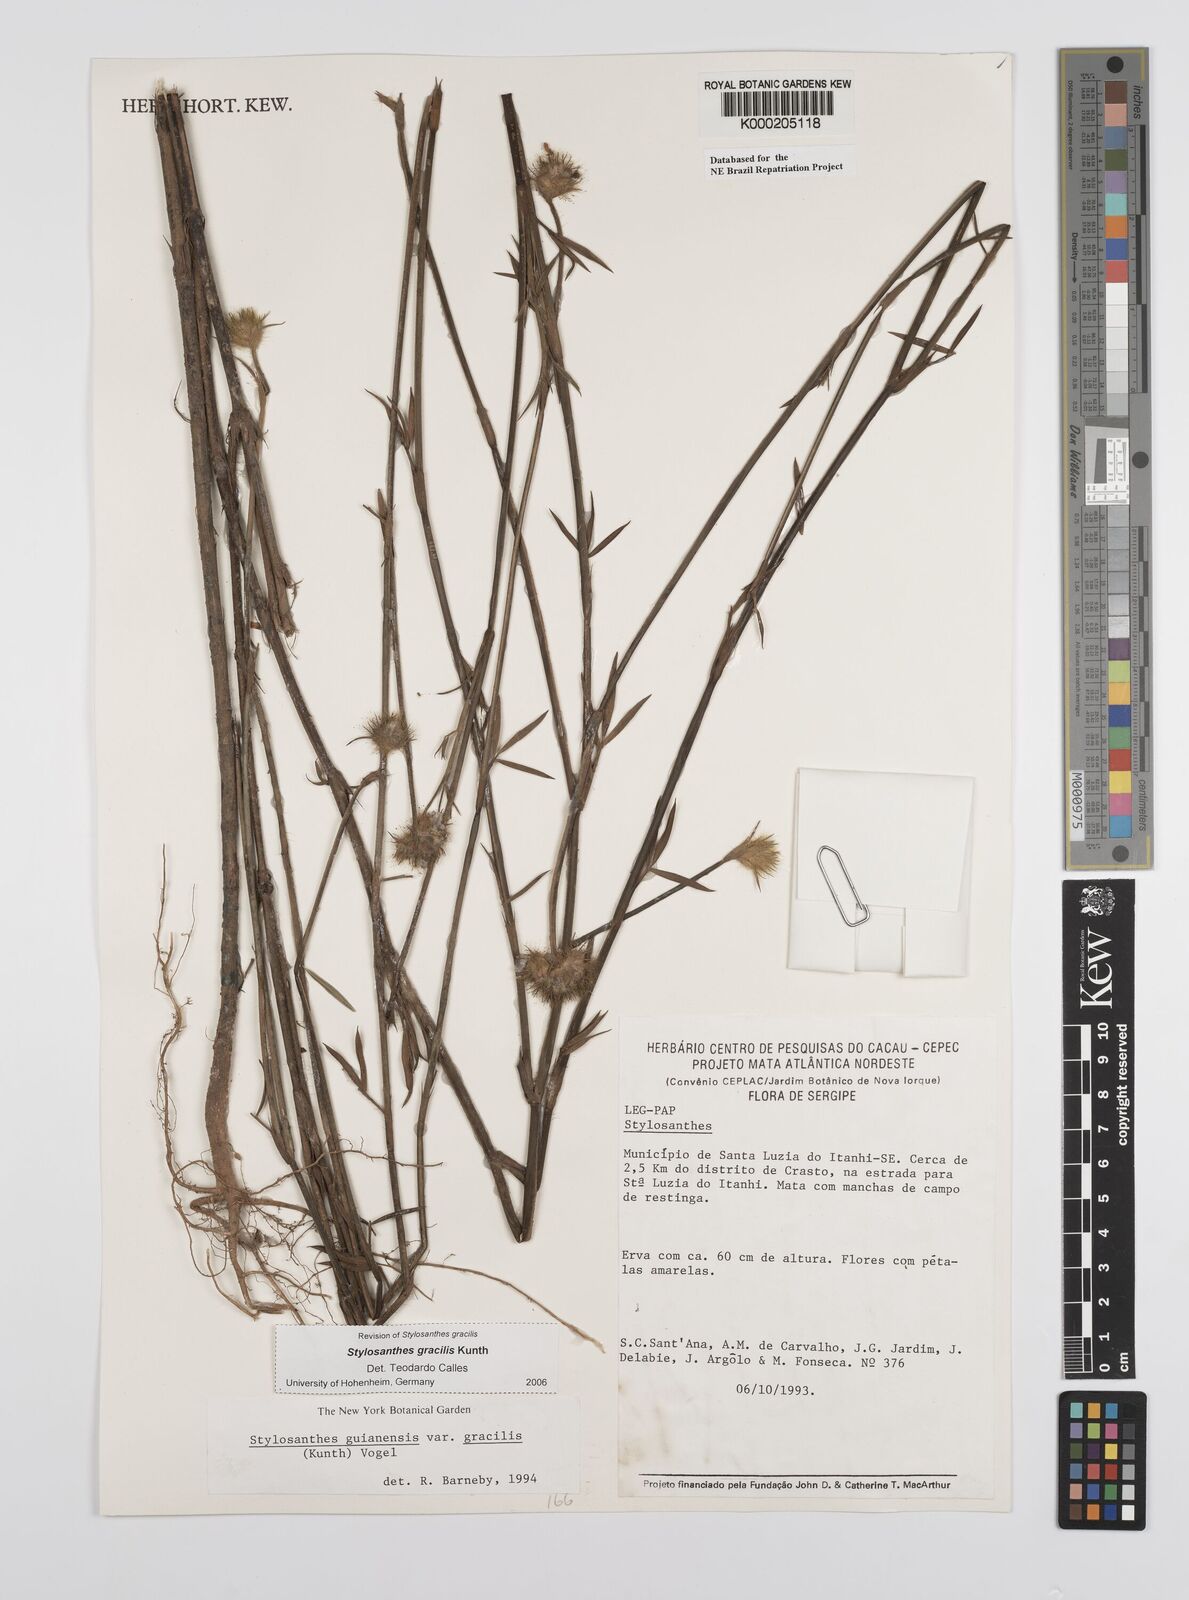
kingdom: Plantae
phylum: Tracheophyta
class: Magnoliopsida
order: Fabales
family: Fabaceae
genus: Stylosanthes
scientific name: Stylosanthes guianensis
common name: Pencil flower
